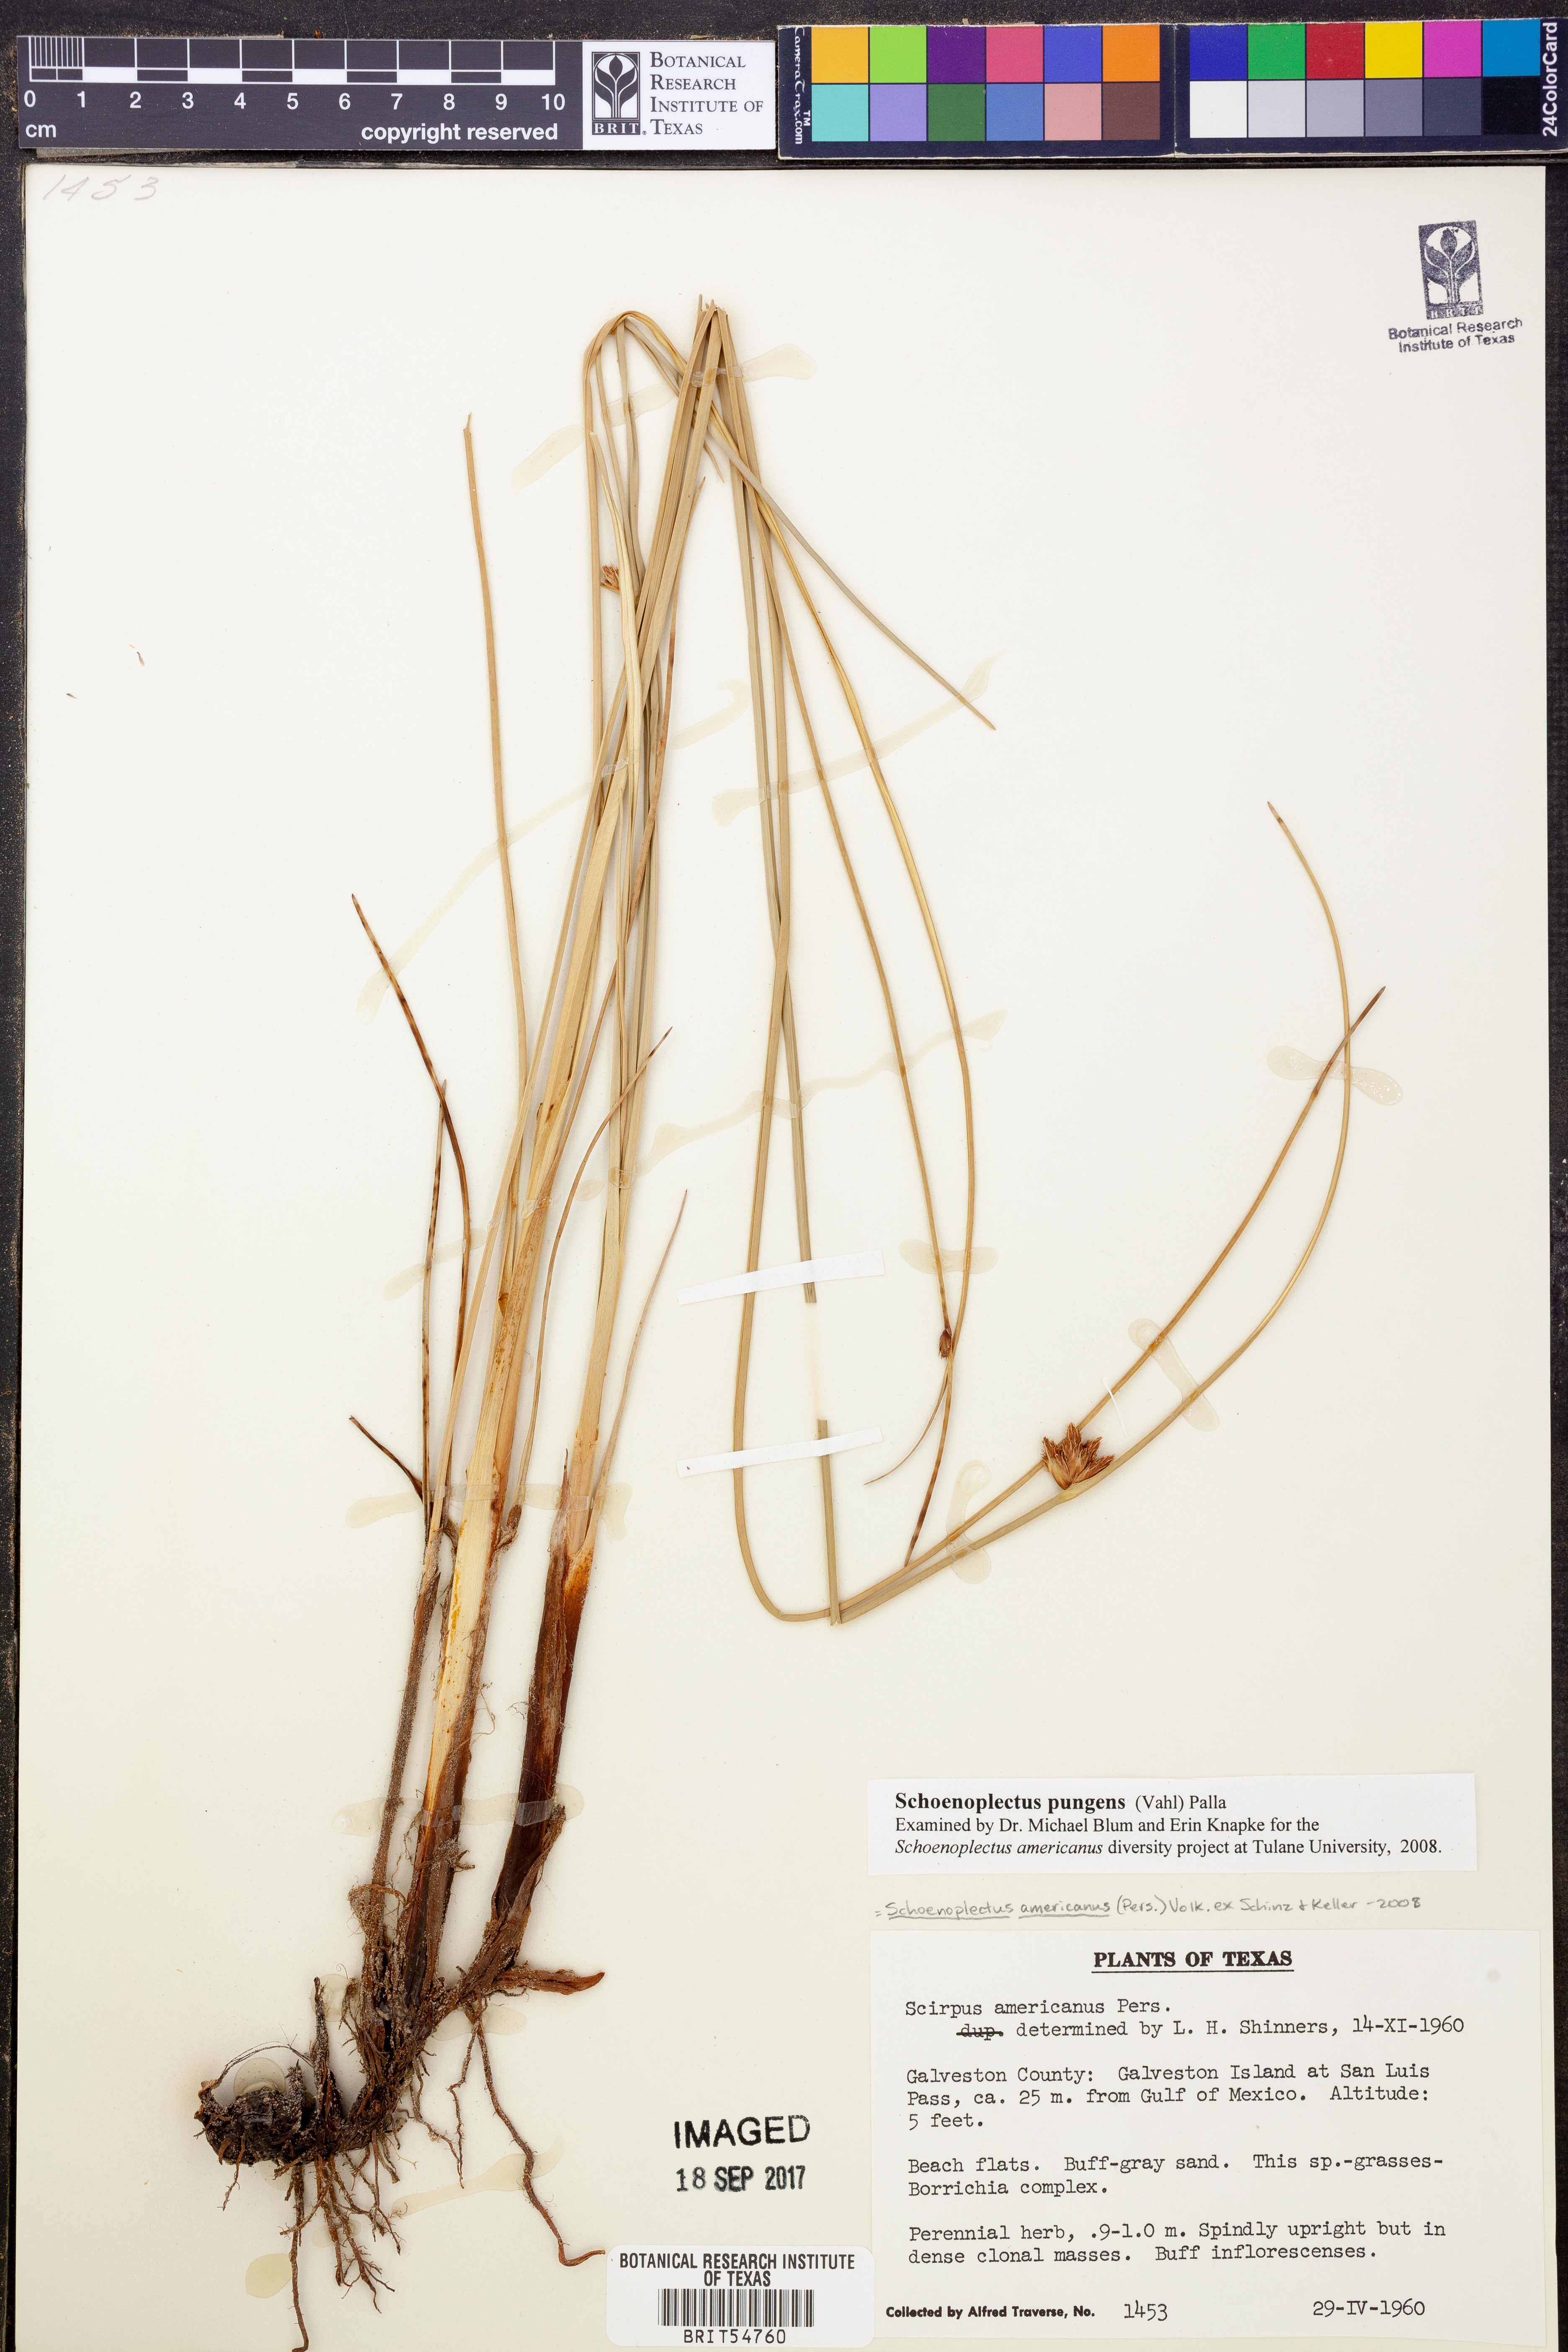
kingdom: Plantae
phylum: Tracheophyta
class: Liliopsida
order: Poales
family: Cyperaceae
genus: Schoenoplectus
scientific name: Schoenoplectus pungens
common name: Sharp club-rush
